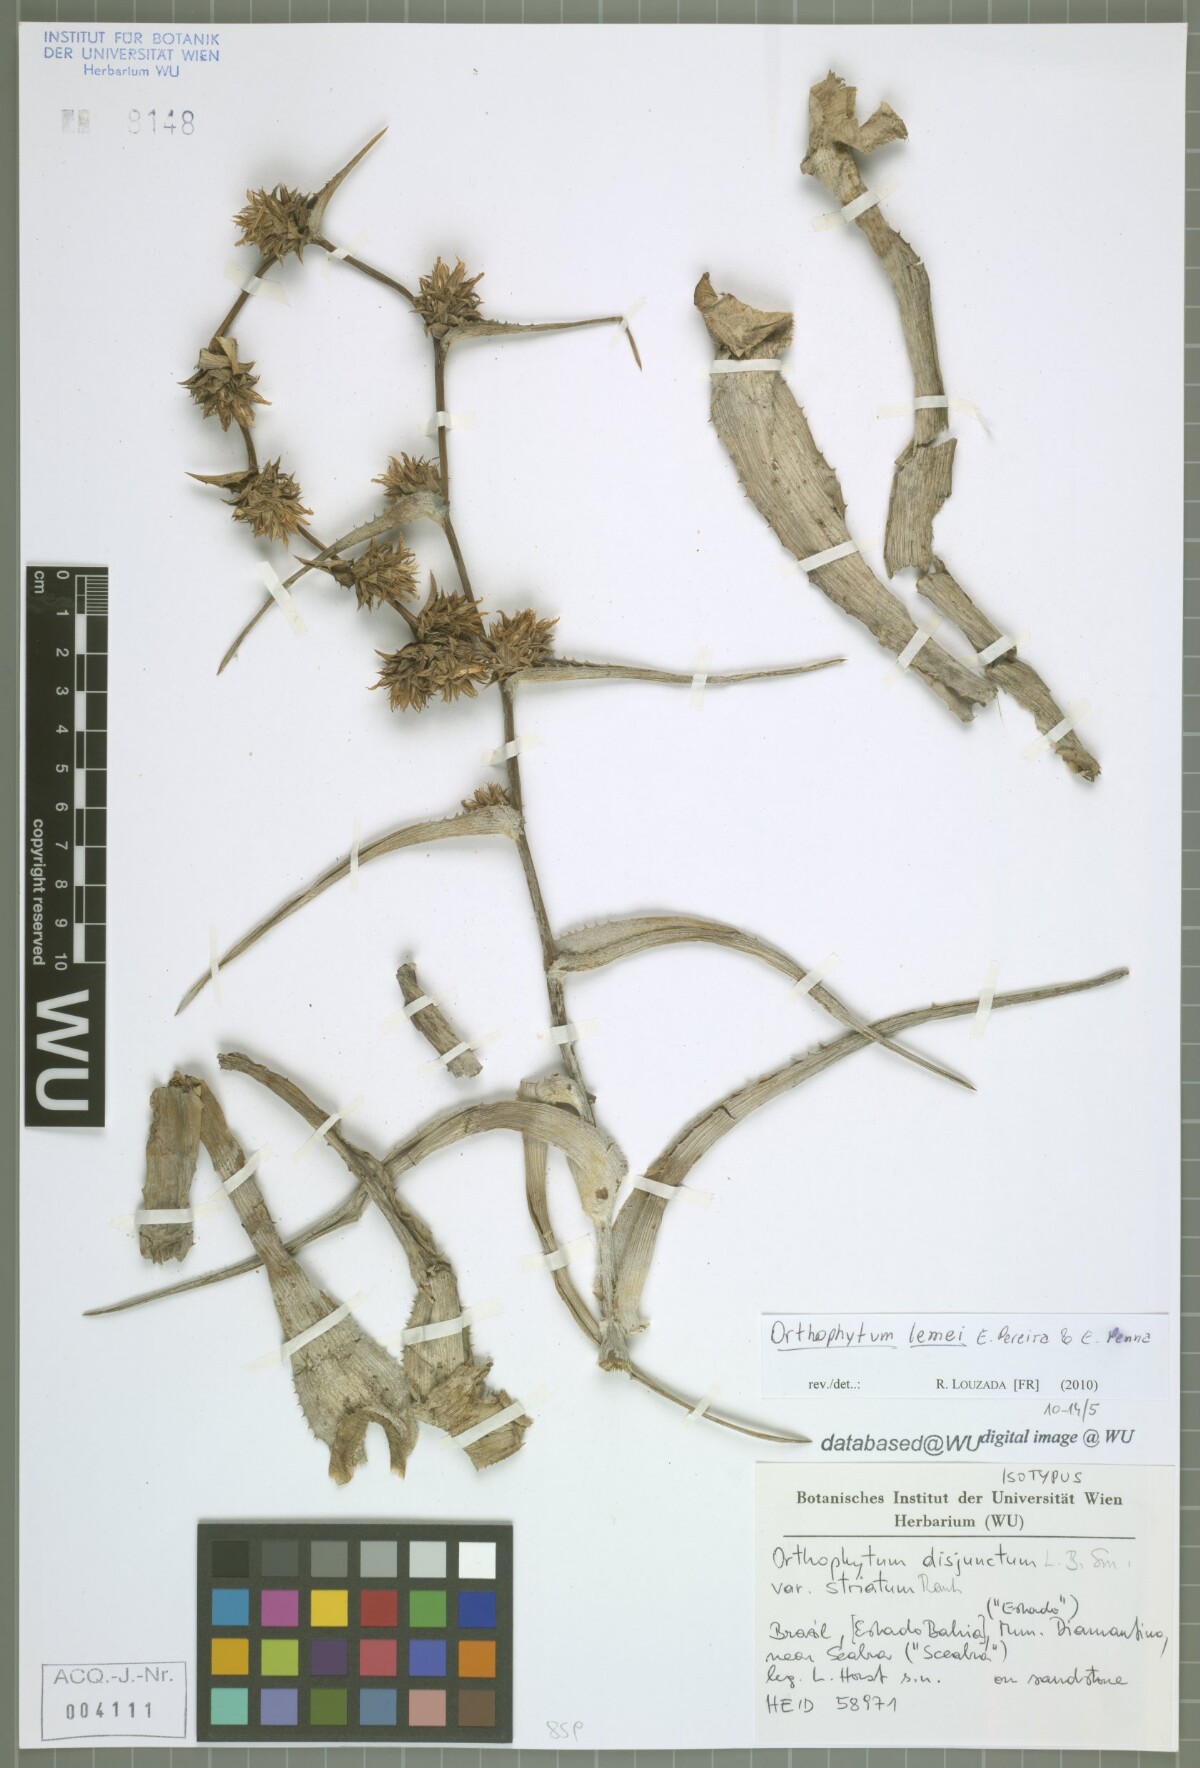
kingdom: Plantae
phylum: Tracheophyta
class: Liliopsida
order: Poales
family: Bromeliaceae
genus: Orthophytum
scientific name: Orthophytum disjunctum
